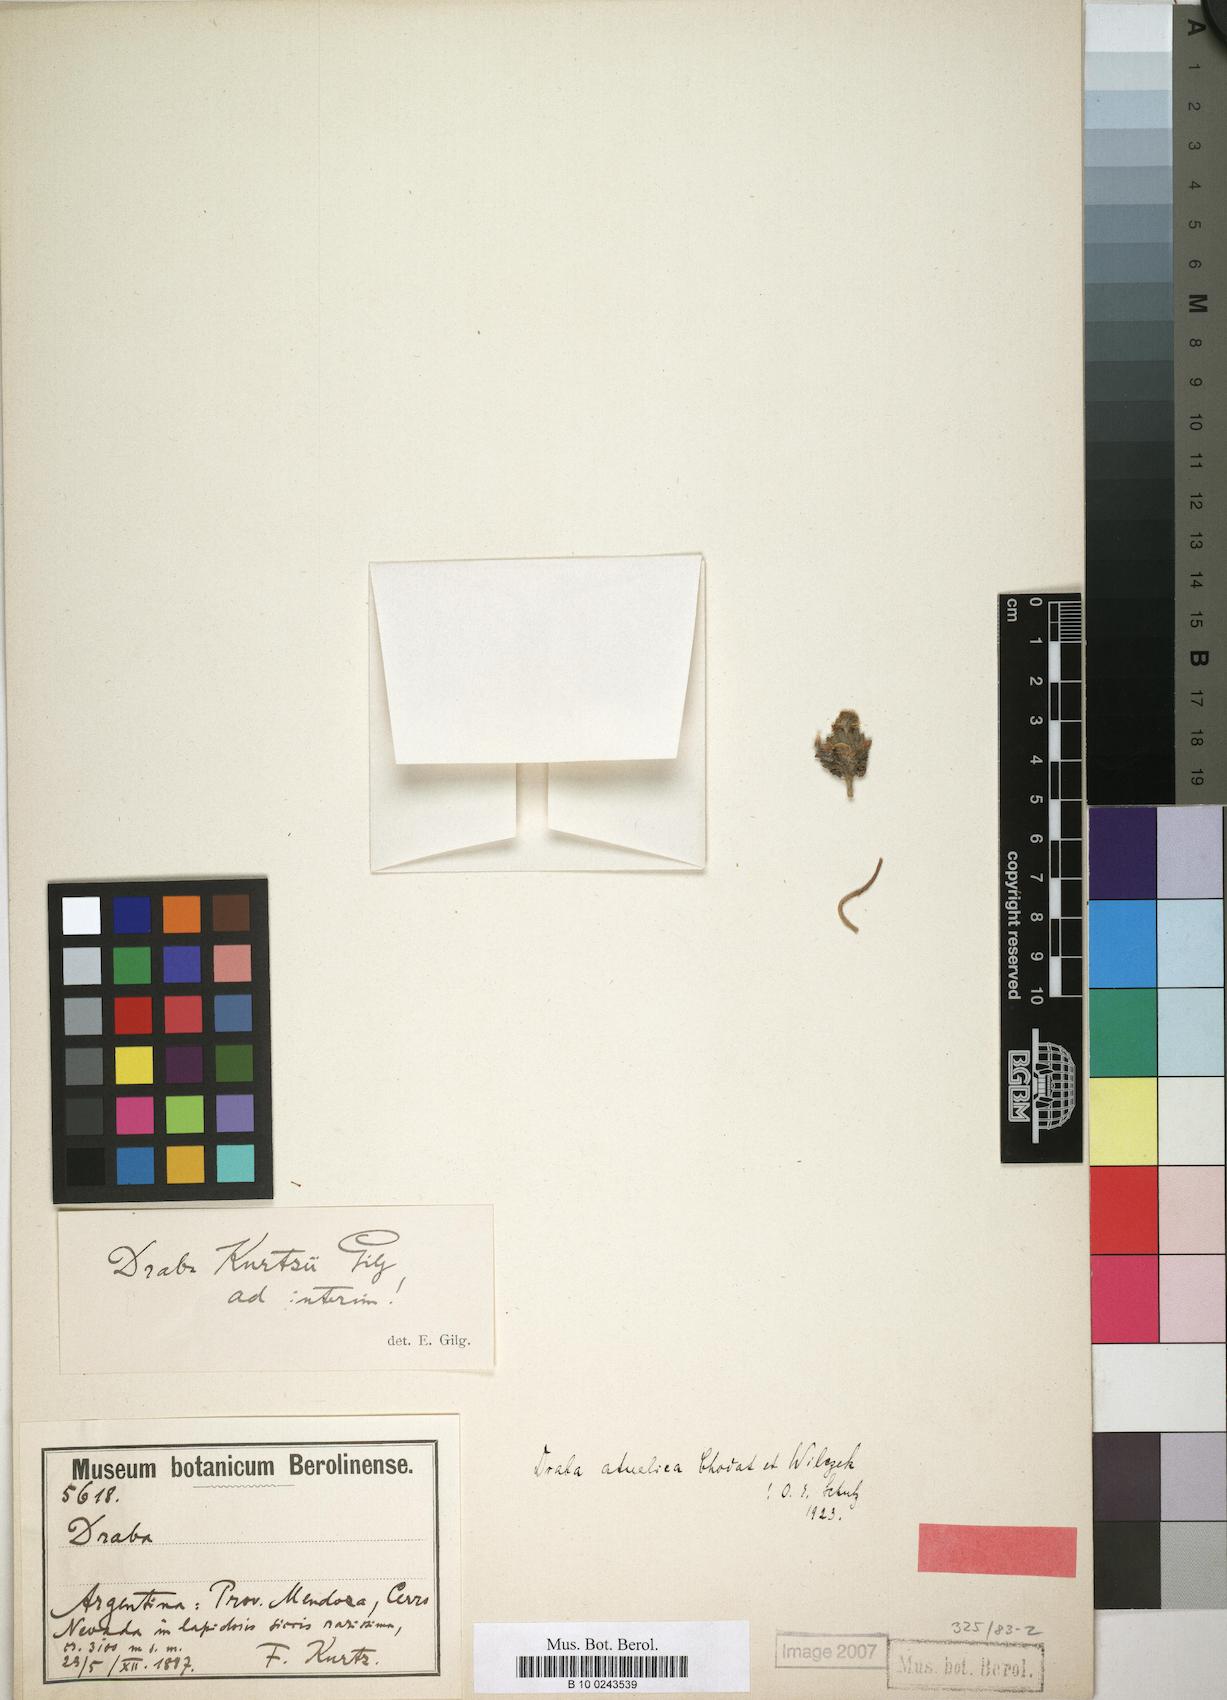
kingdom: Plantae
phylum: Tracheophyta
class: Magnoliopsida
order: Brassicales
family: Brassicaceae
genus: Draba
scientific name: Draba magellanica
